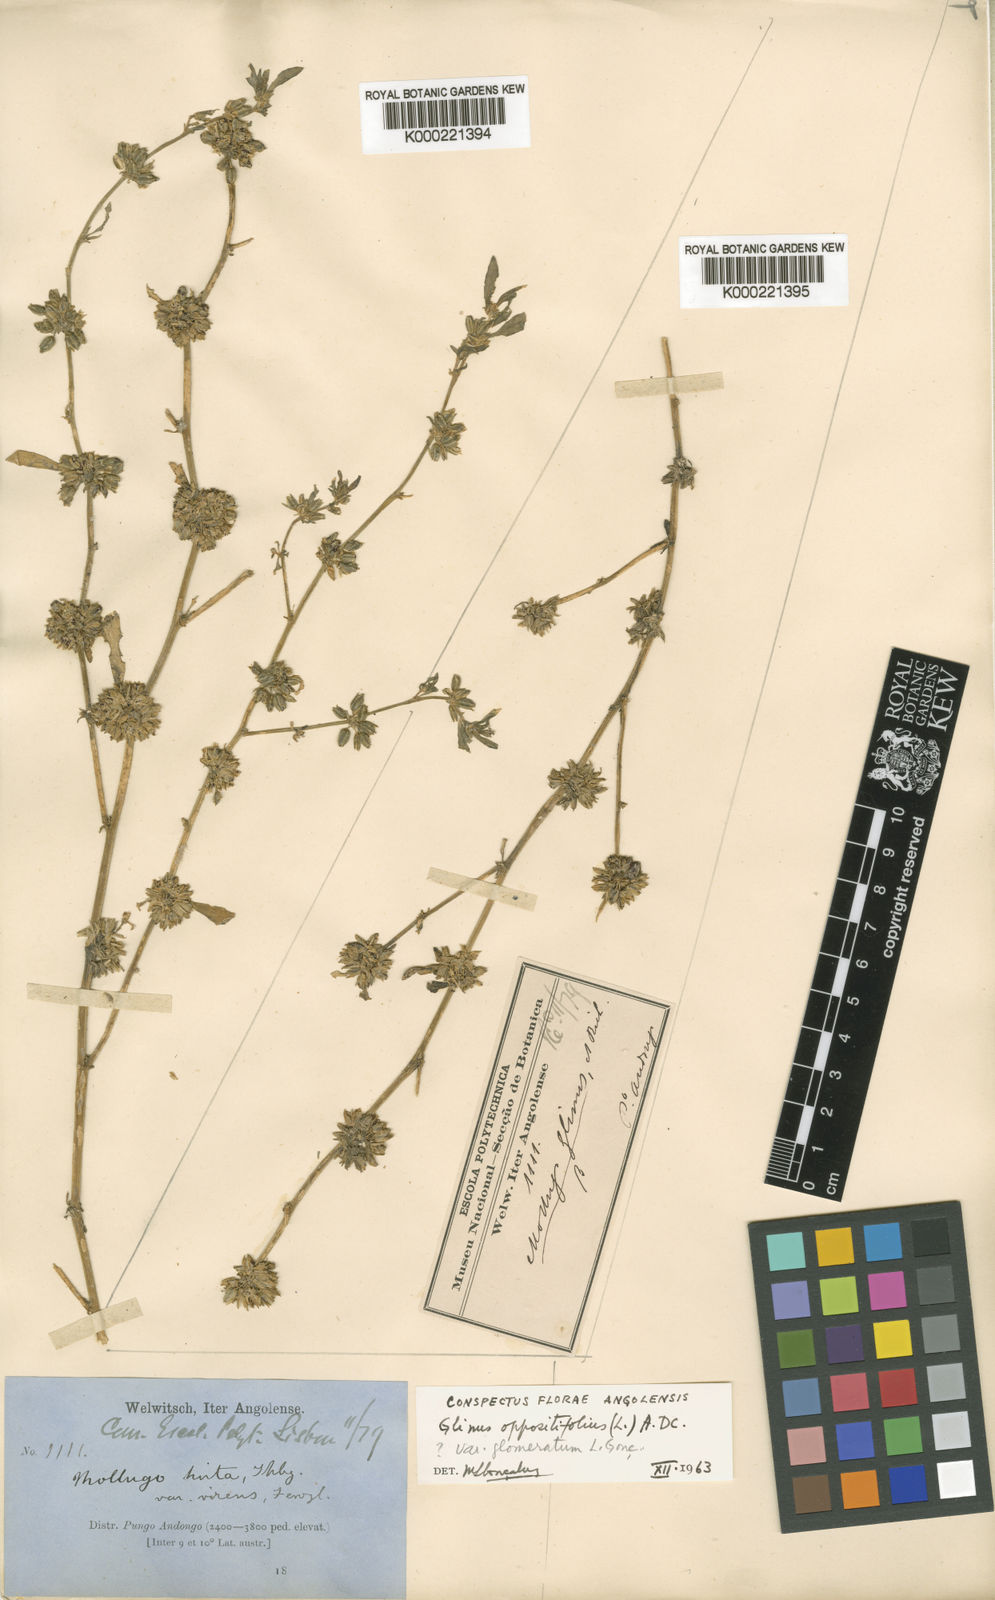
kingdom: Plantae
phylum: Tracheophyta
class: Magnoliopsida
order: Caryophyllales
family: Molluginaceae
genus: Glinus
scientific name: Glinus oppositifolius
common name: Slender carpetweed
